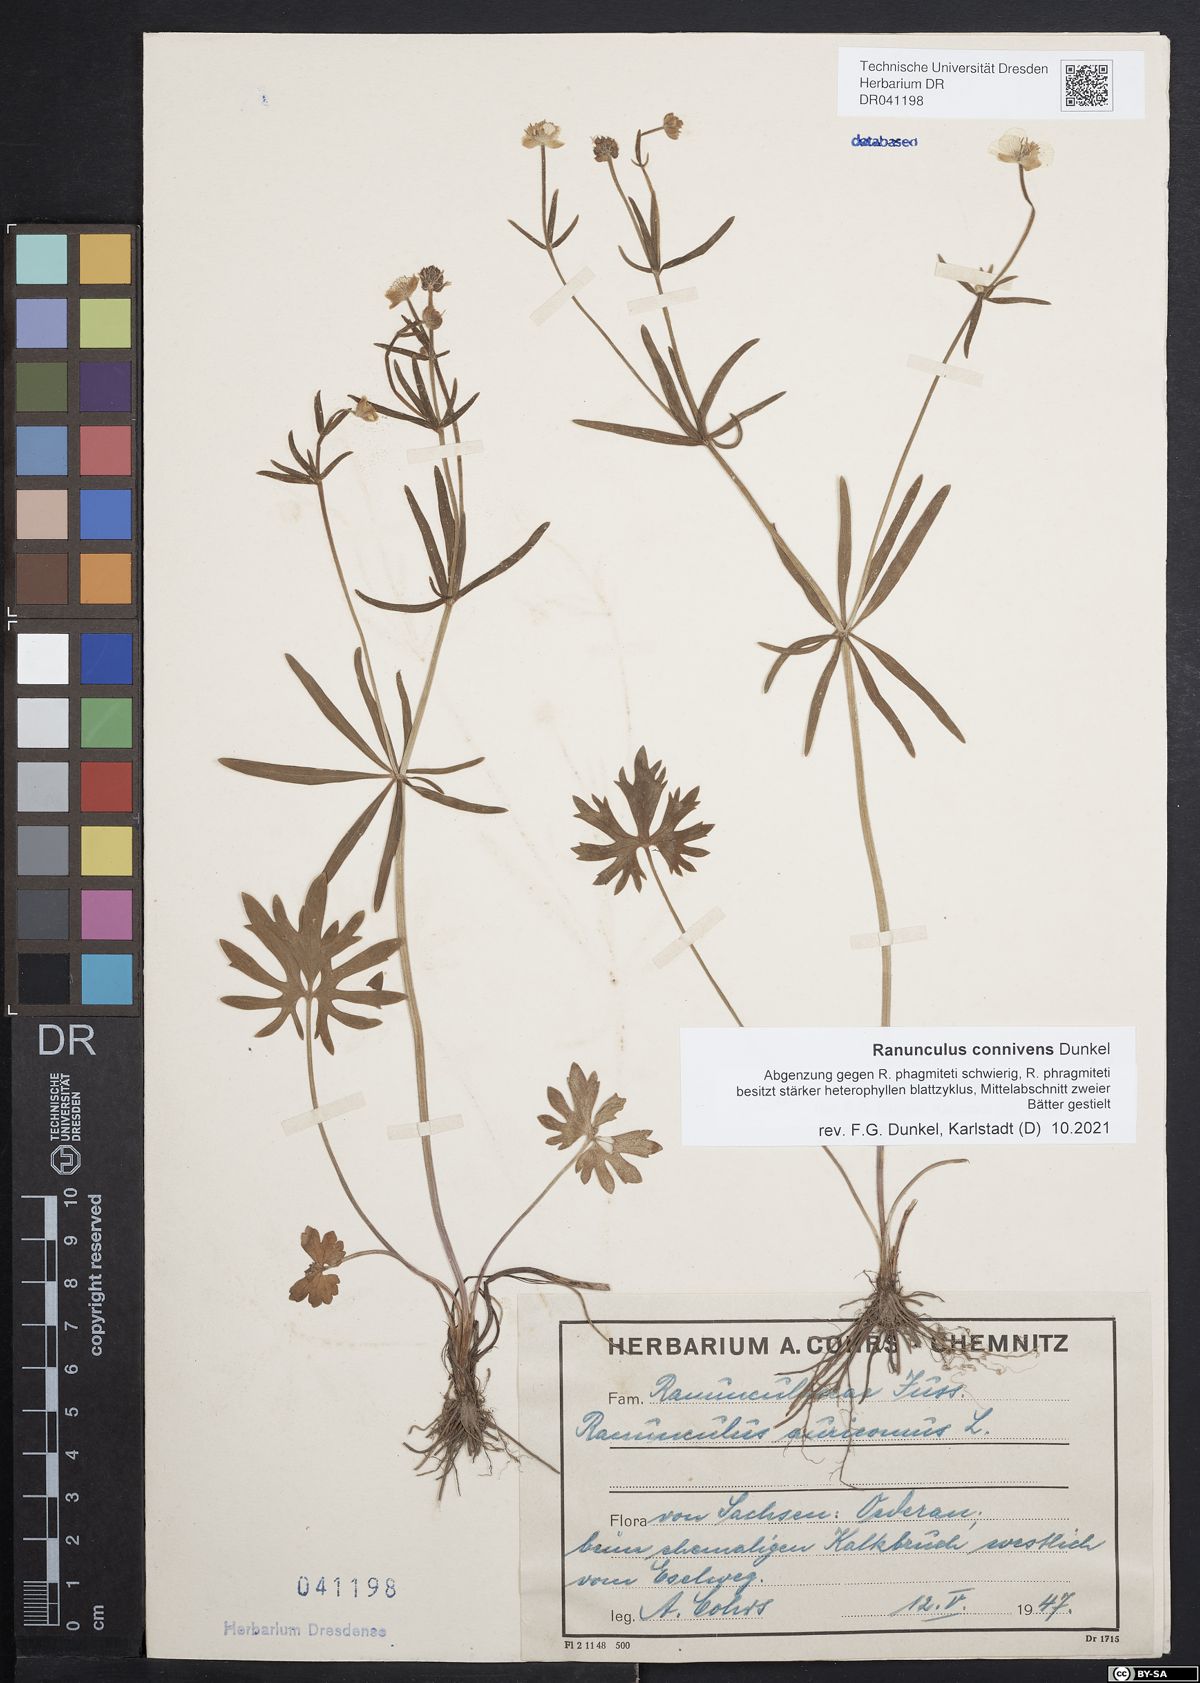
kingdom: Plantae
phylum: Tracheophyta
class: Magnoliopsida
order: Ranunculales
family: Ranunculaceae
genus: Ranunculus
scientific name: Ranunculus connivens
